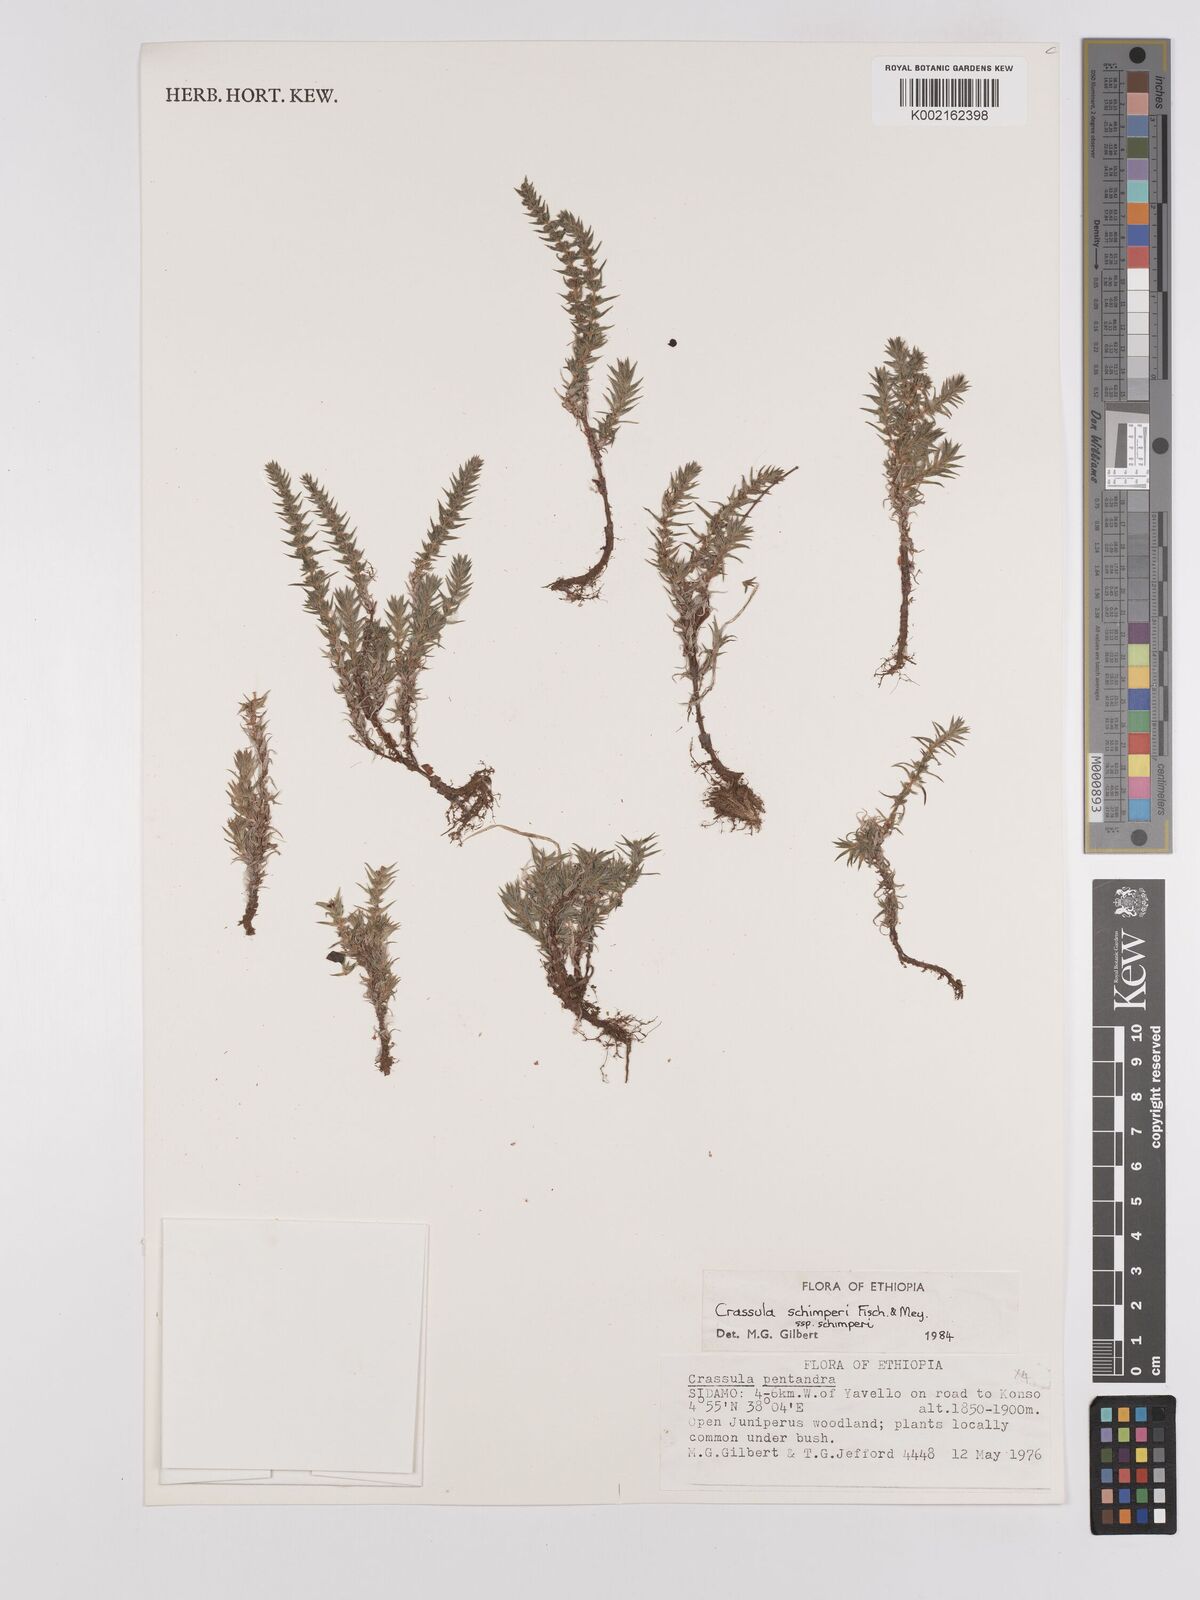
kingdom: Plantae
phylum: Tracheophyta
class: Magnoliopsida
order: Saxifragales
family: Crassulaceae
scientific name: Crassulaceae
